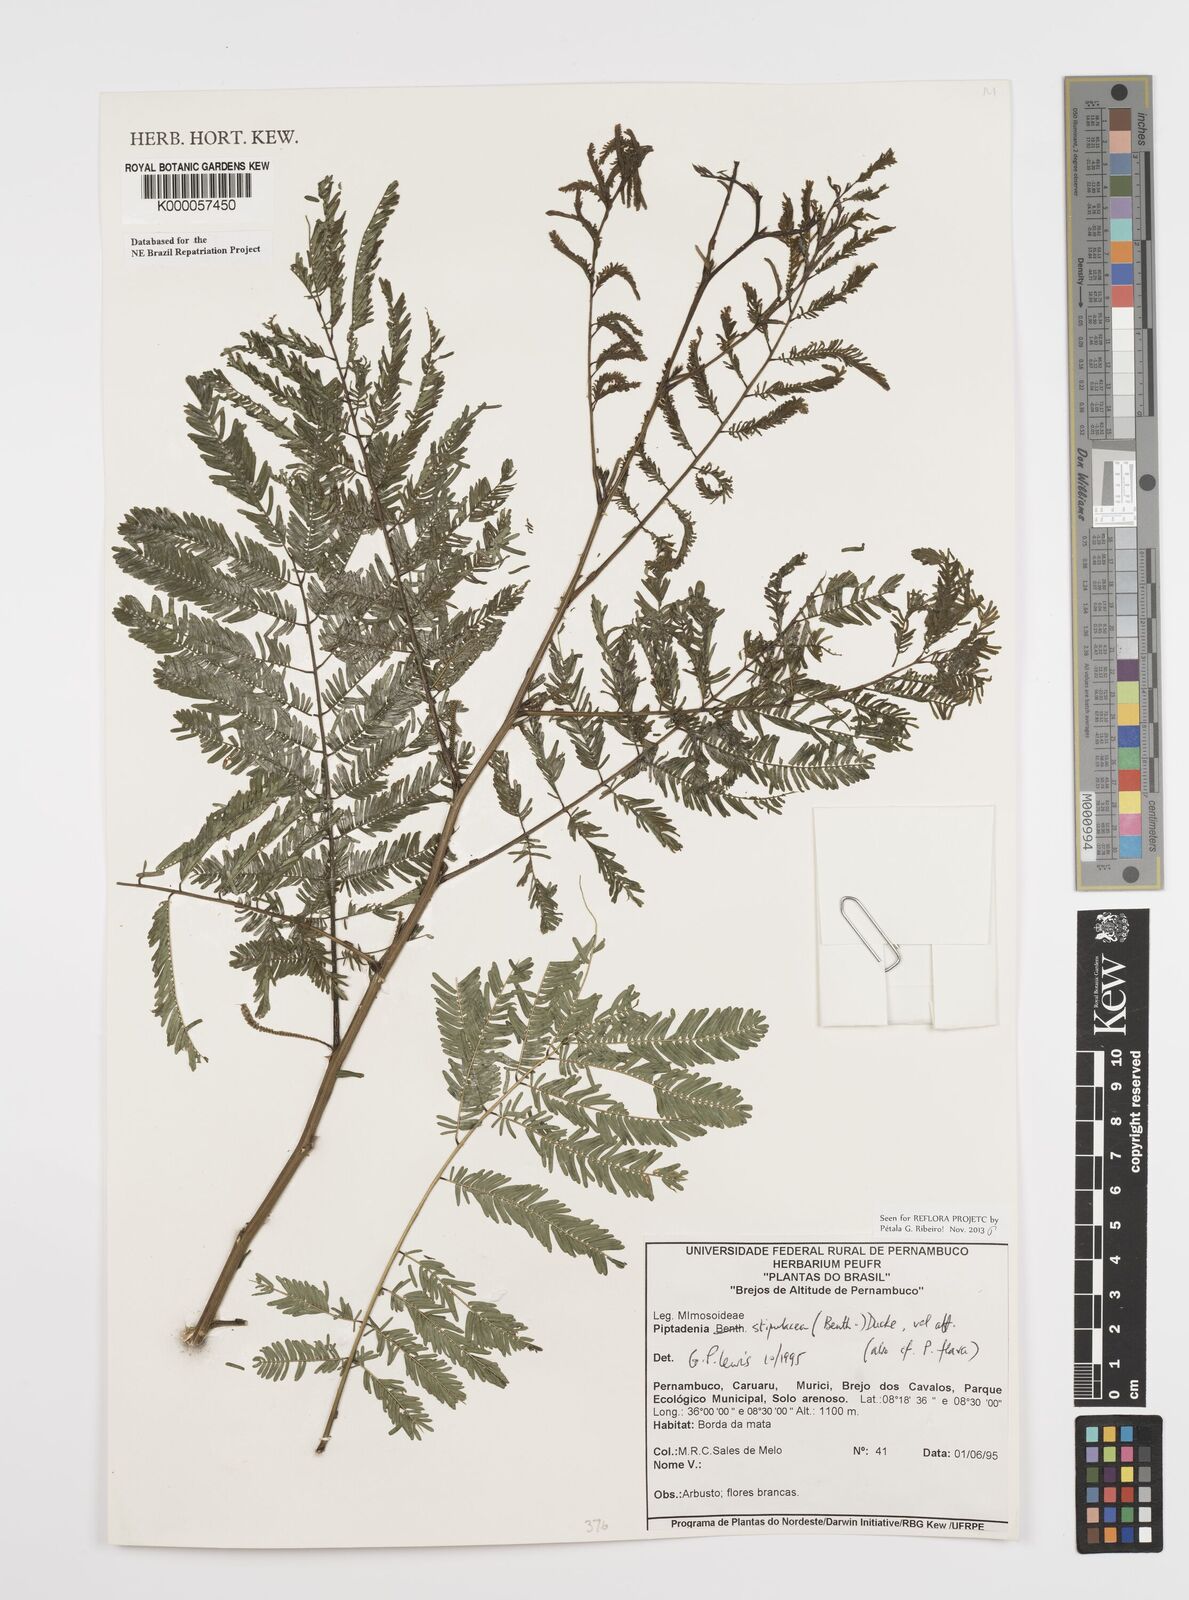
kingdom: Plantae
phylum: Tracheophyta
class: Magnoliopsida
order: Fabales
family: Fabaceae
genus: Piptadenia
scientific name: Piptadenia retusa
